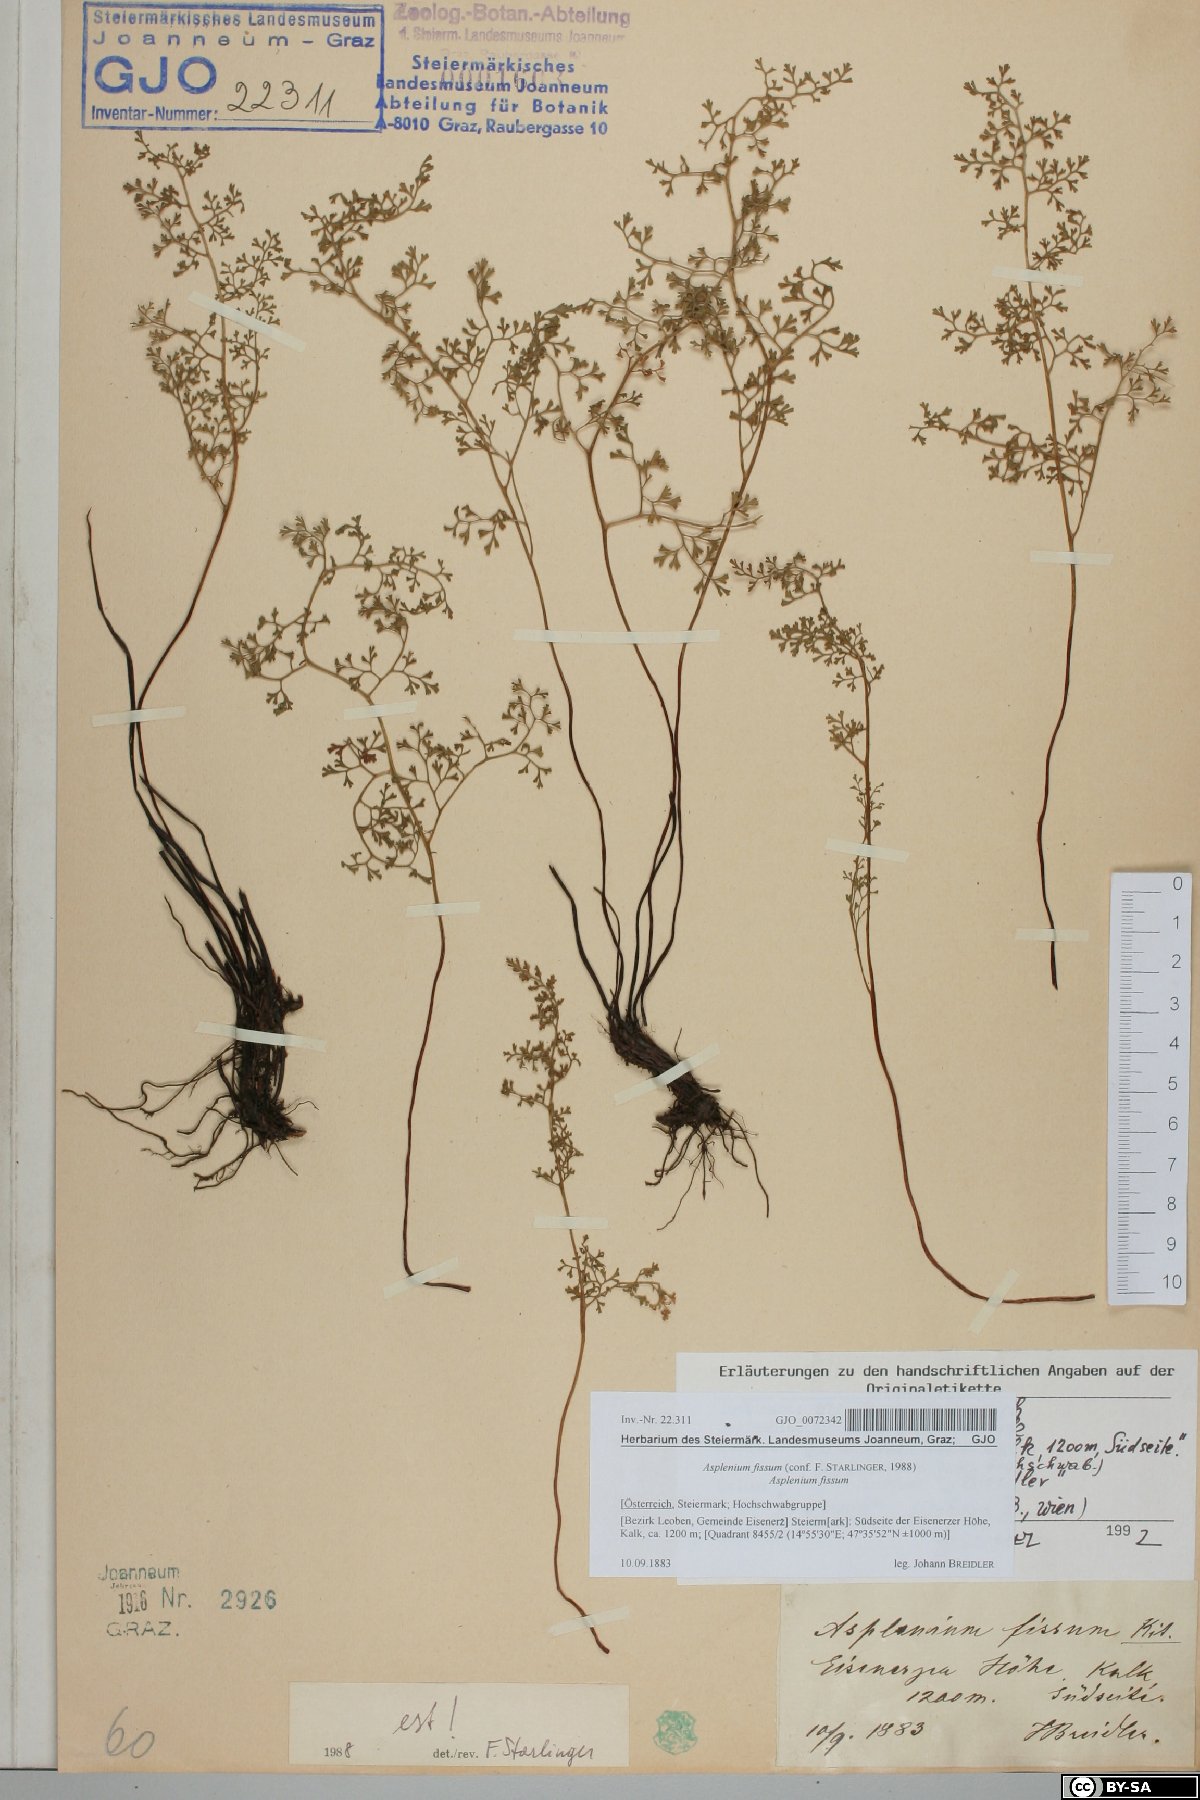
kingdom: Plantae
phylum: Tracheophyta
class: Polypodiopsida
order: Polypodiales
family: Aspleniaceae
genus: Asplenium
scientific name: Asplenium fissum
